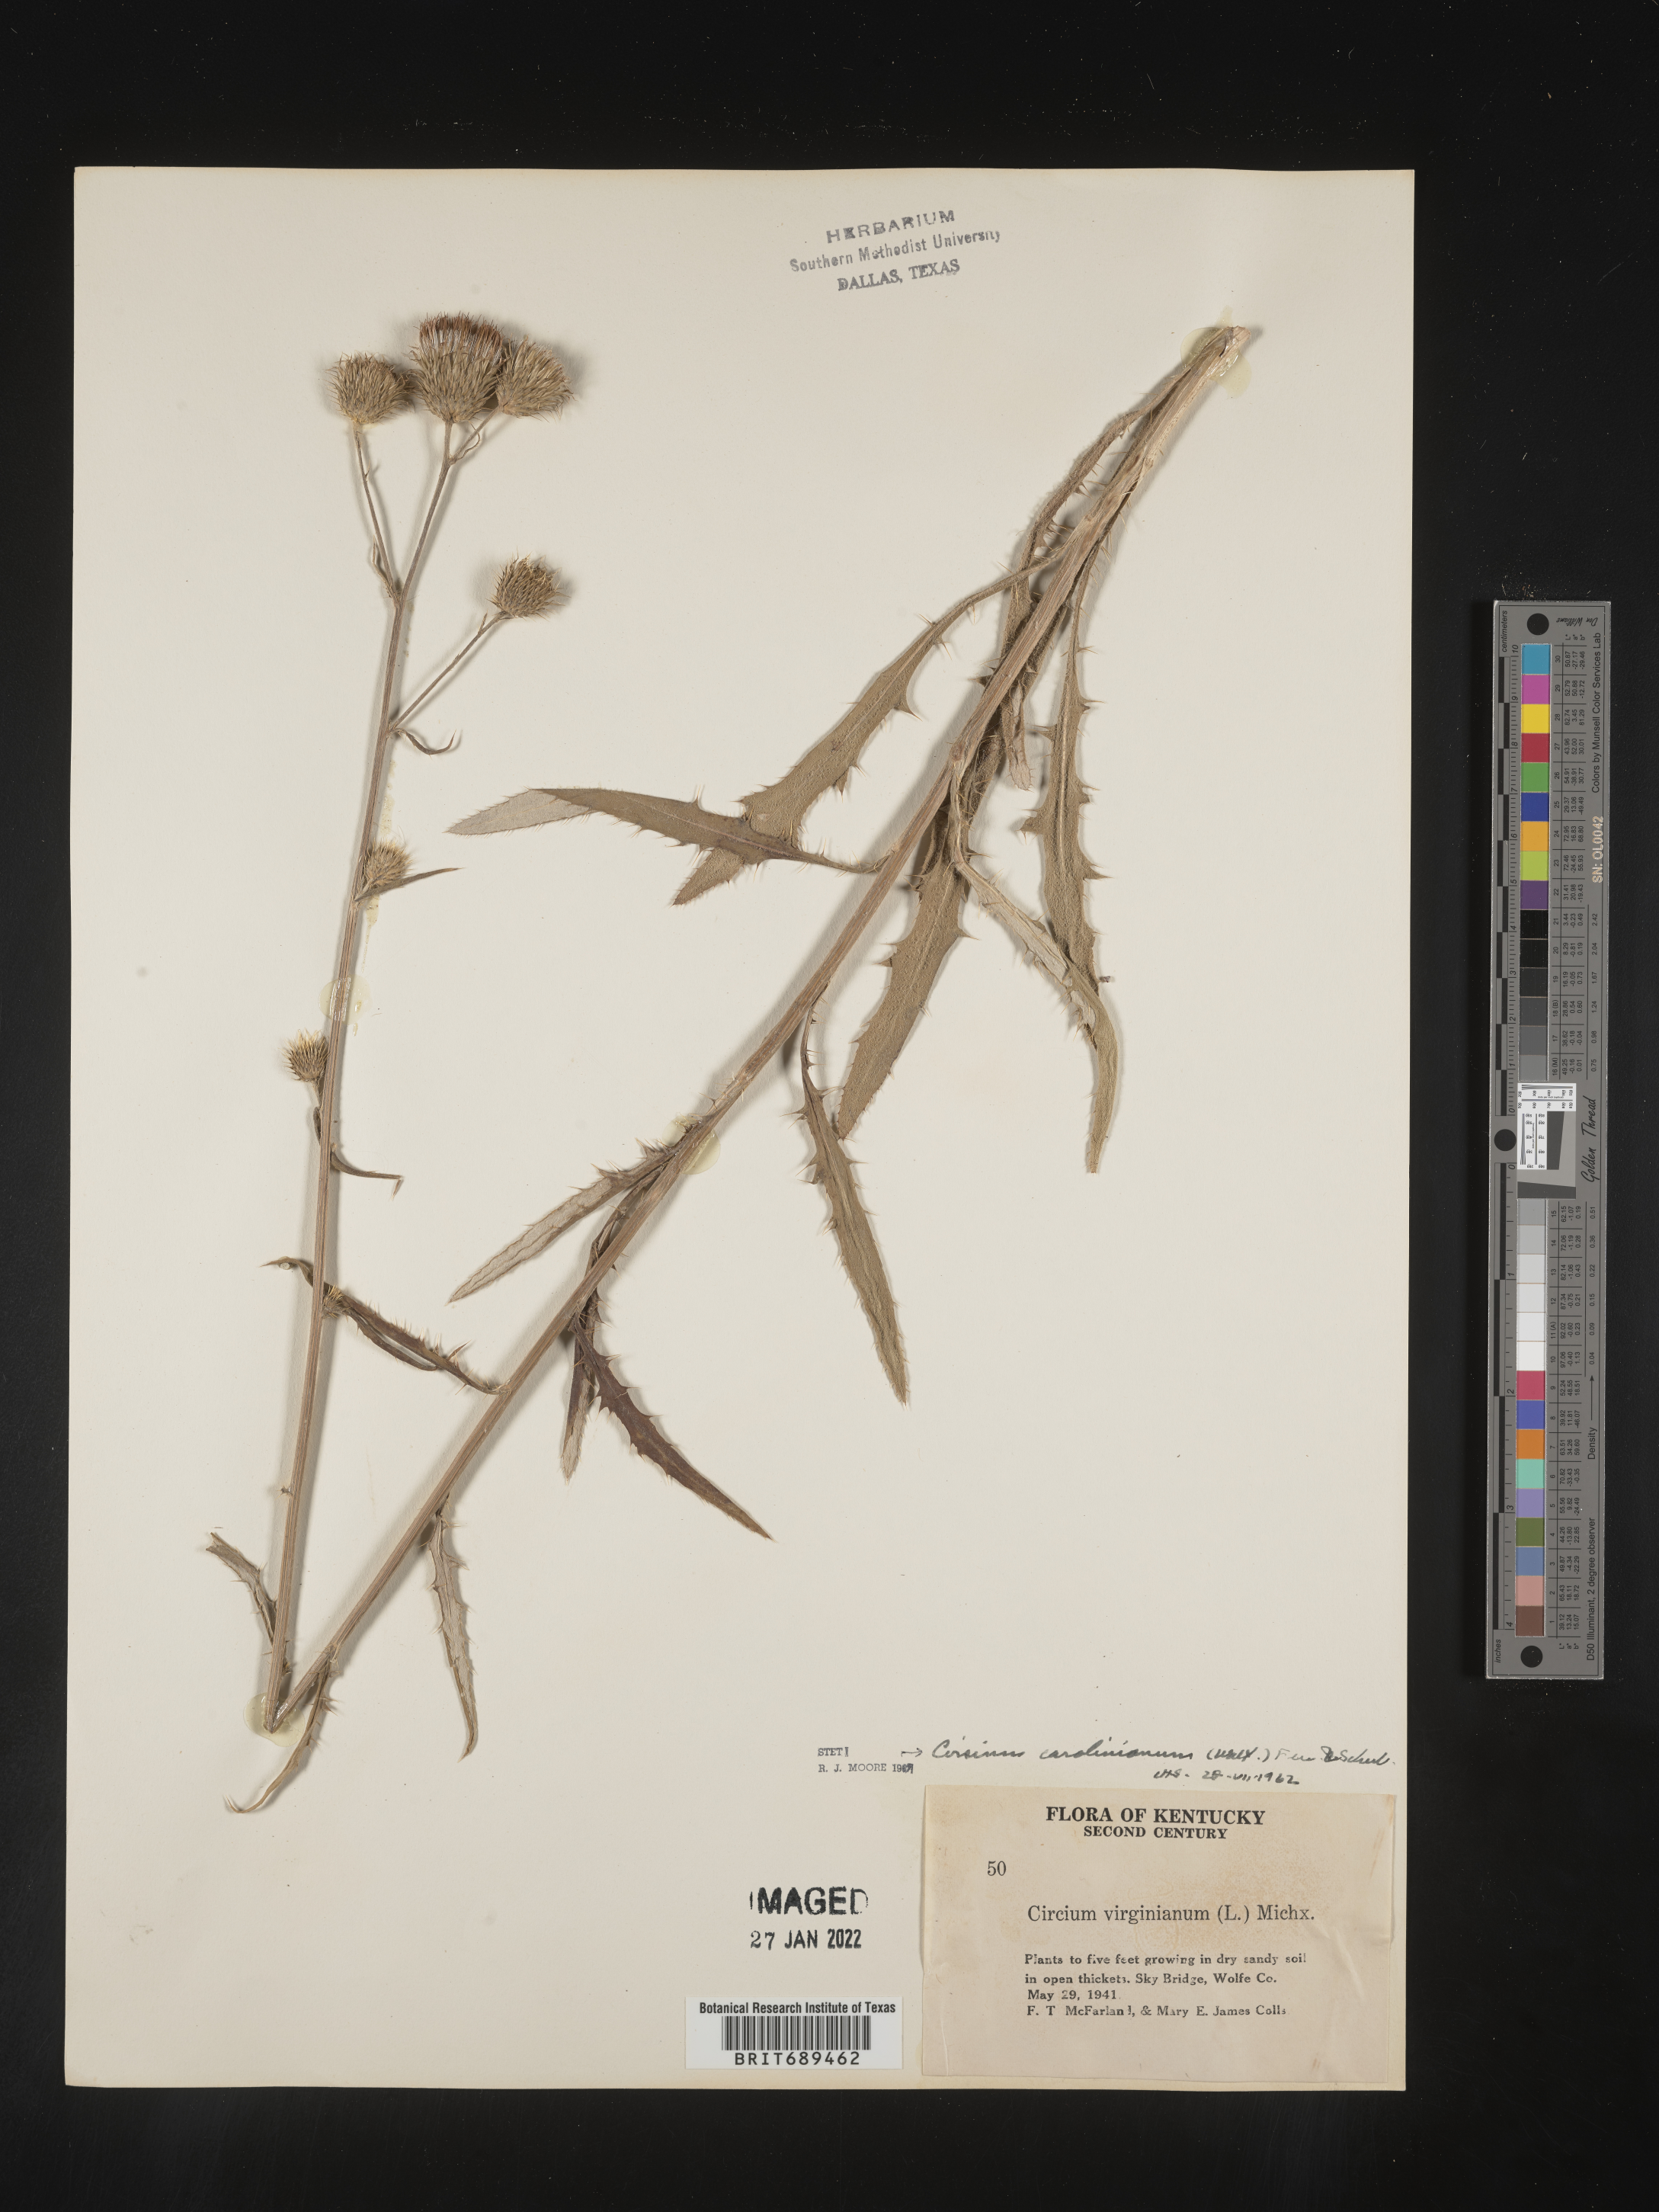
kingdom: Plantae
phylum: Tracheophyta
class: Magnoliopsida
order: Asterales
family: Asteraceae
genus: Cirsium
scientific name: Cirsium carolinianum
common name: Carolina thistle
